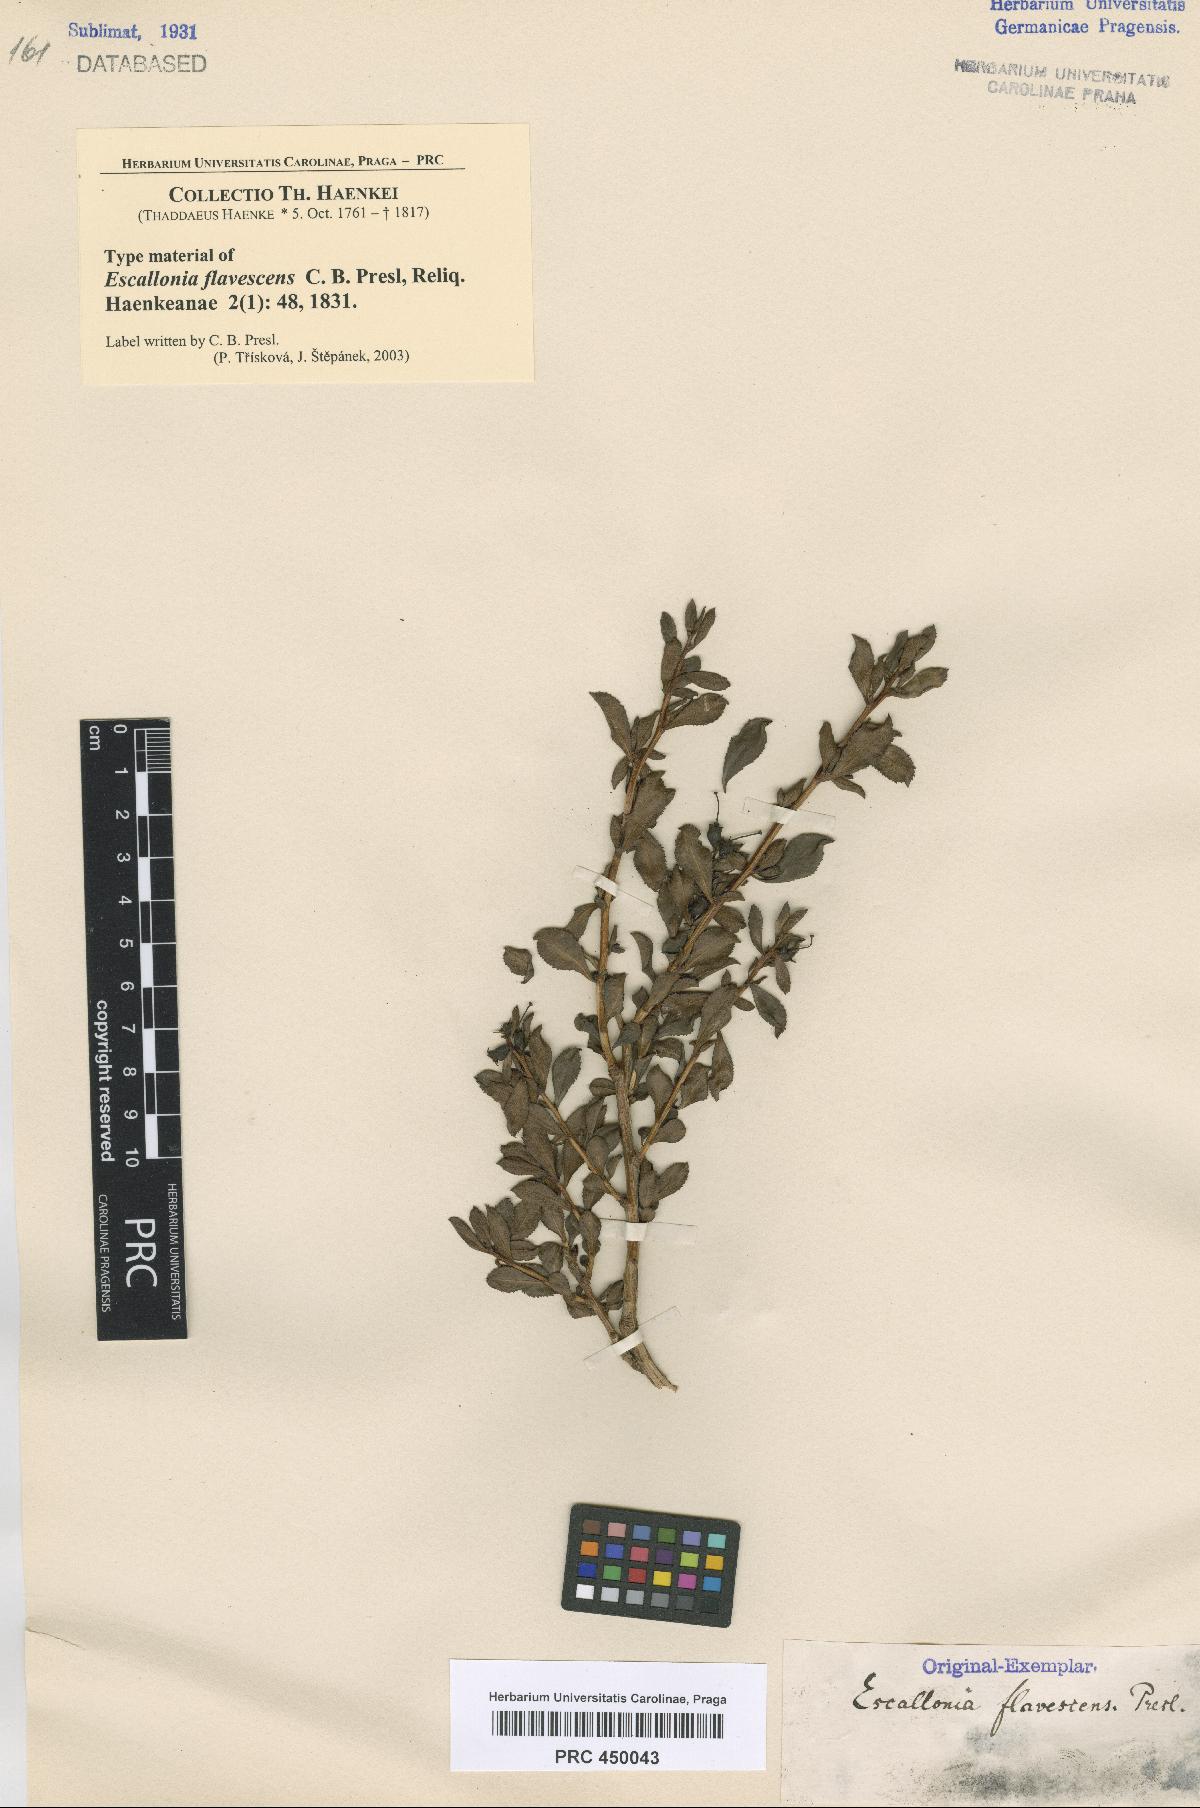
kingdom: Plantae
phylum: Tracheophyta
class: Magnoliopsida
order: Escalloniales
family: Escalloniaceae
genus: Escallonia
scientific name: Escallonia alpina
